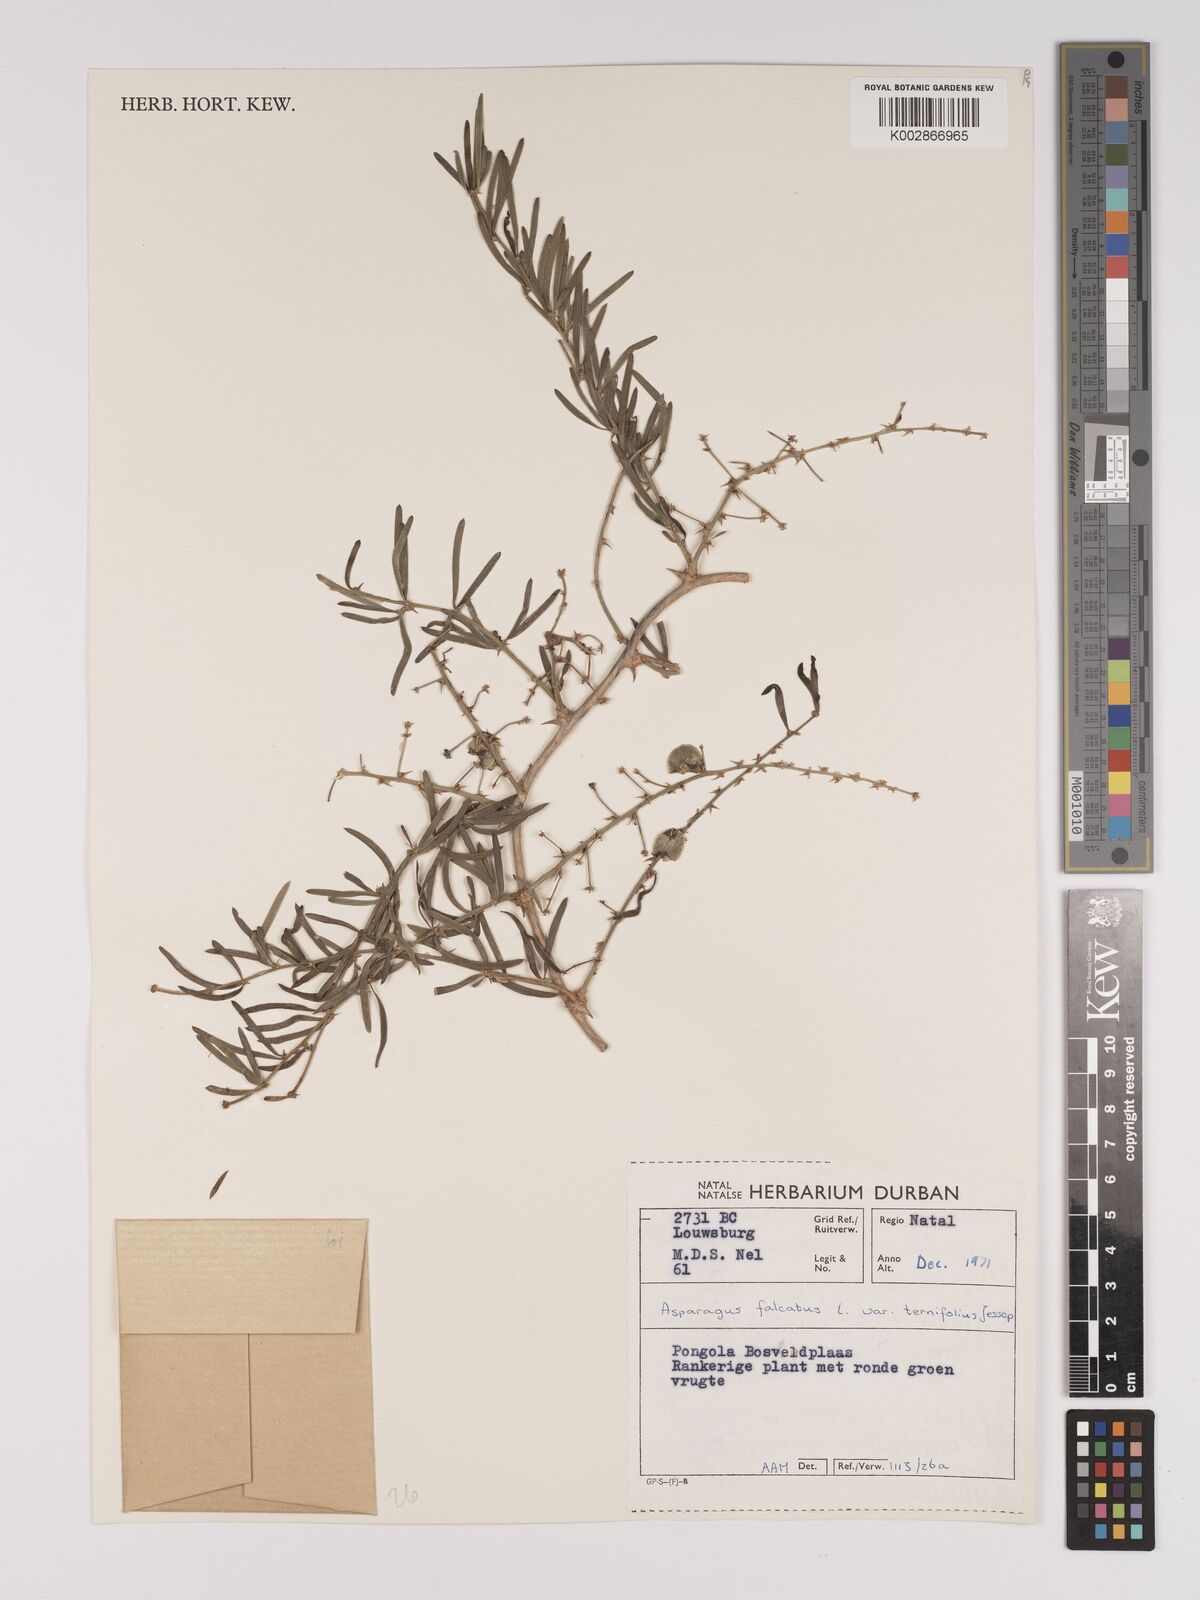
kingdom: Plantae
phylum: Tracheophyta
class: Liliopsida
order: Asparagales
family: Asparagaceae
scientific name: Asparagaceae
